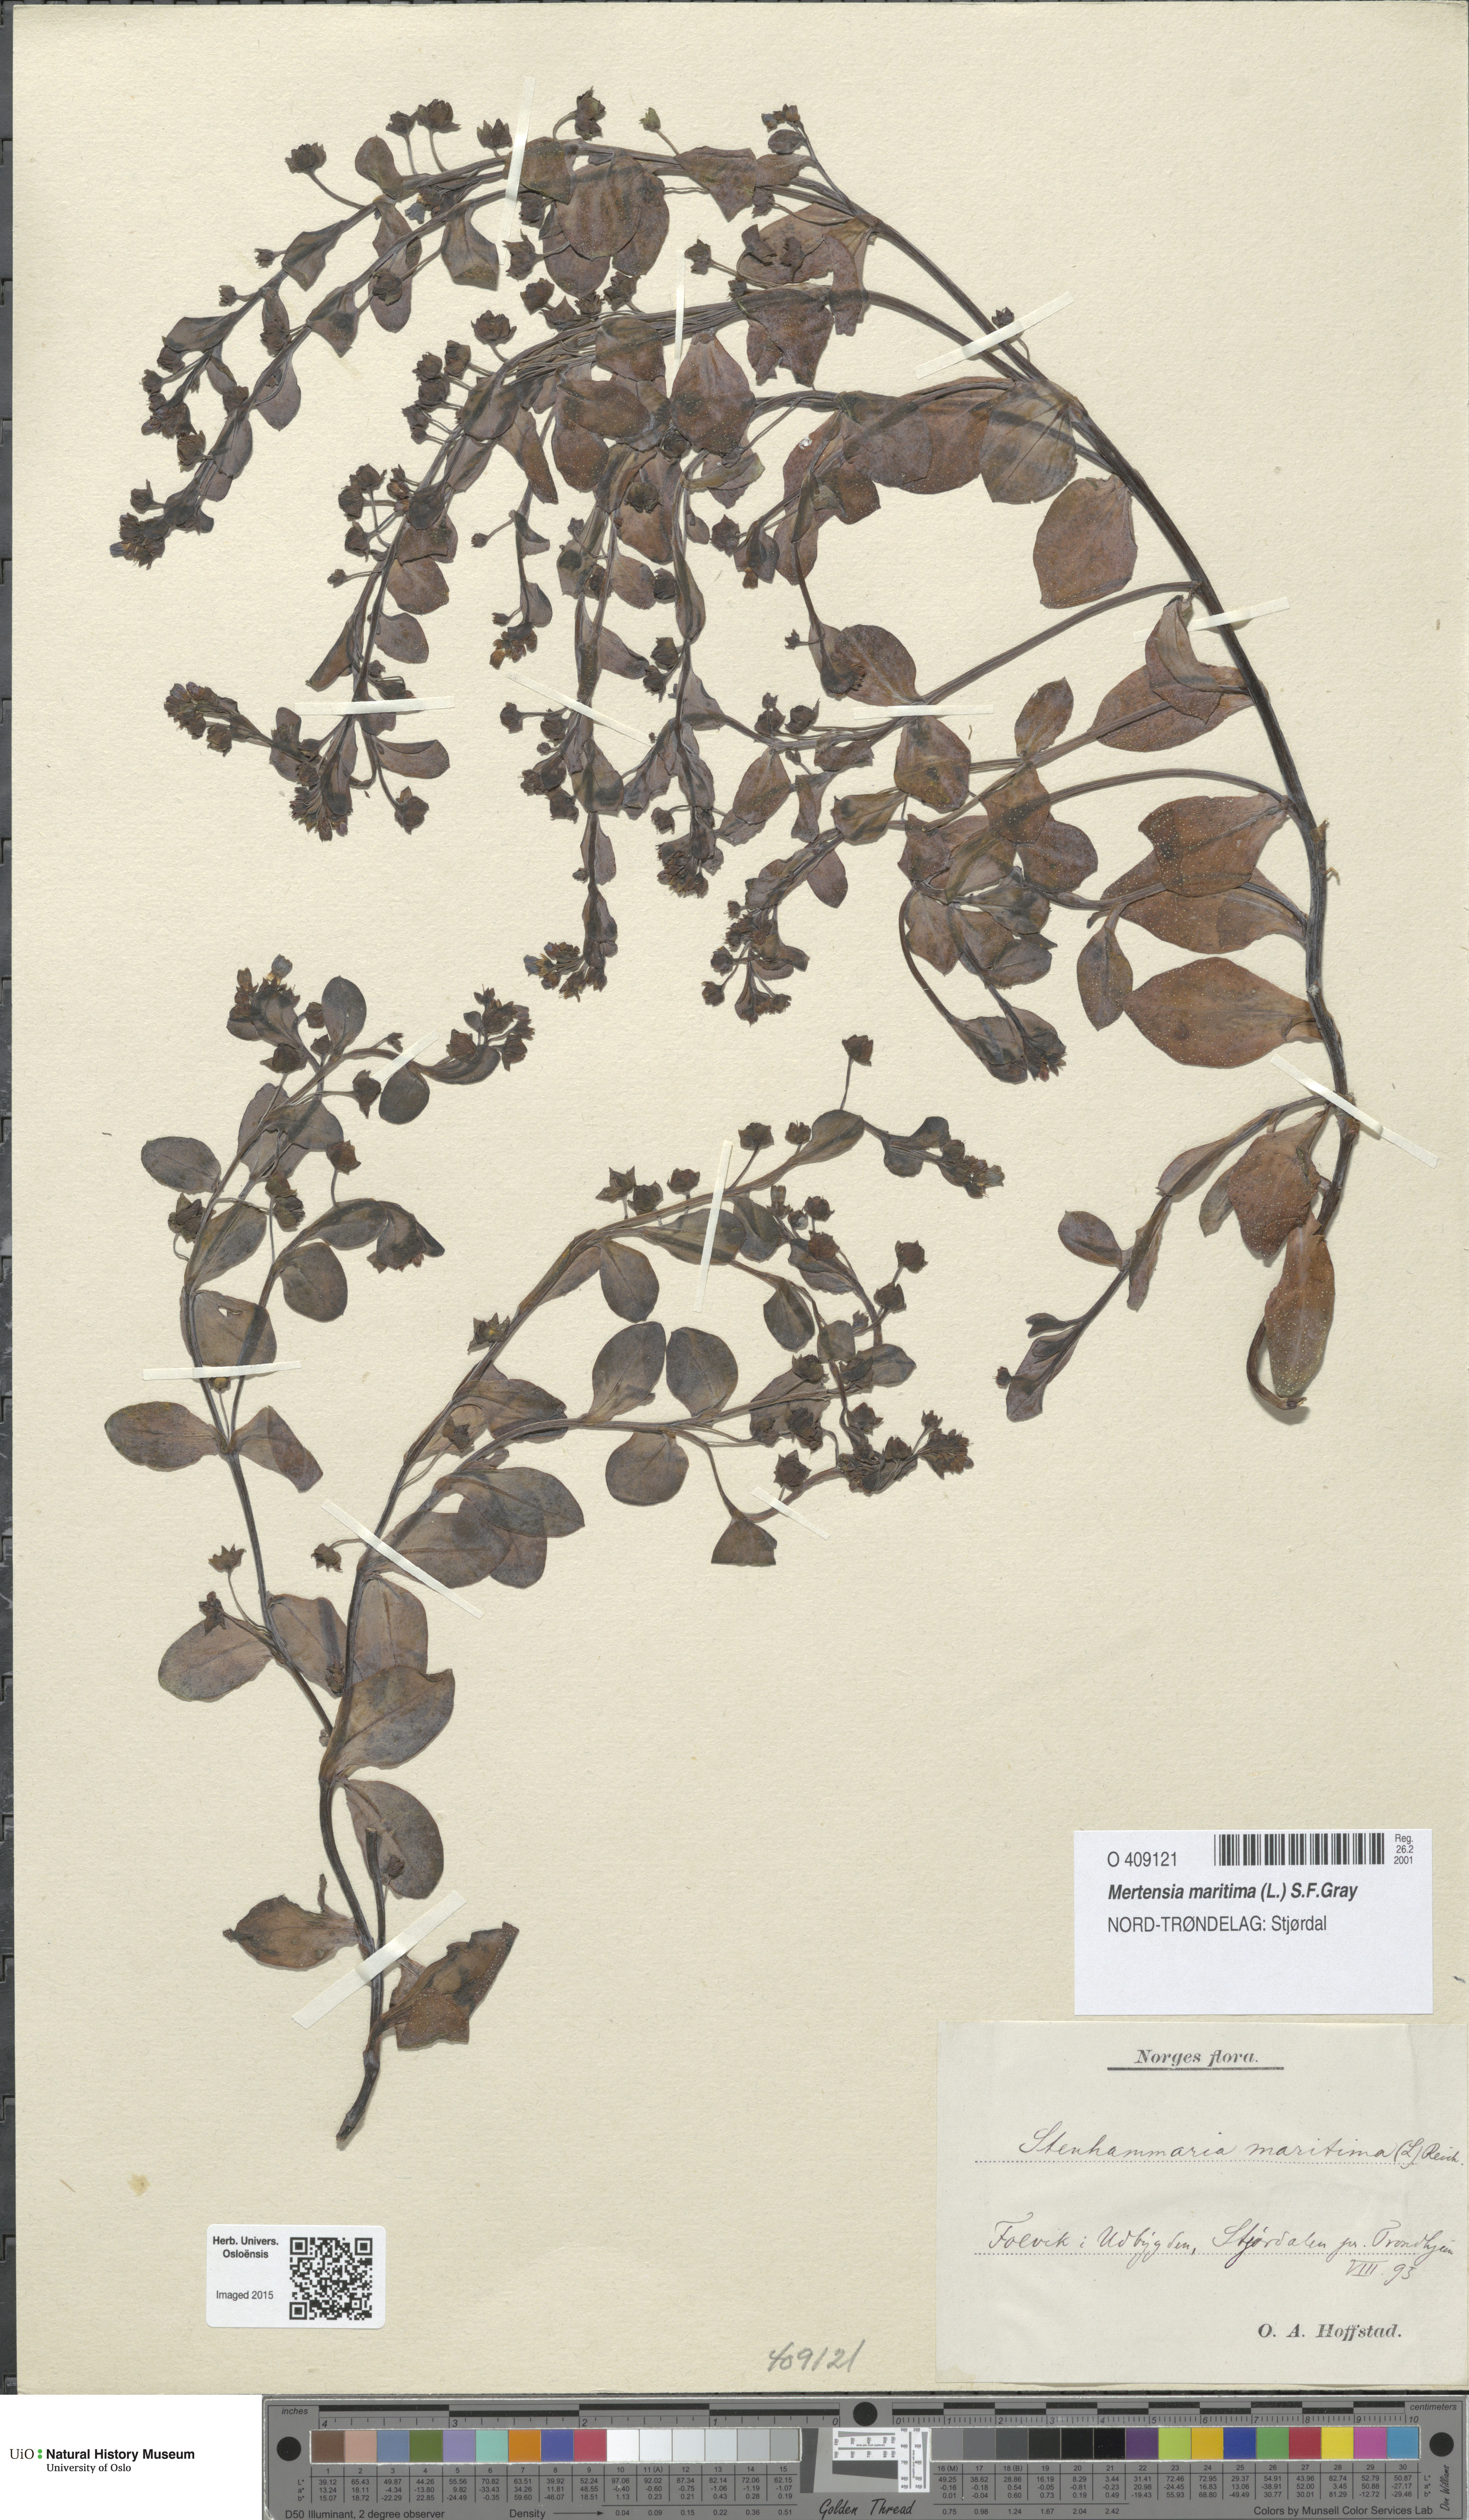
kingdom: Plantae
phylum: Tracheophyta
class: Magnoliopsida
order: Boraginales
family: Boraginaceae
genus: Mertensia
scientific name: Mertensia maritima
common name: Oysterplant
